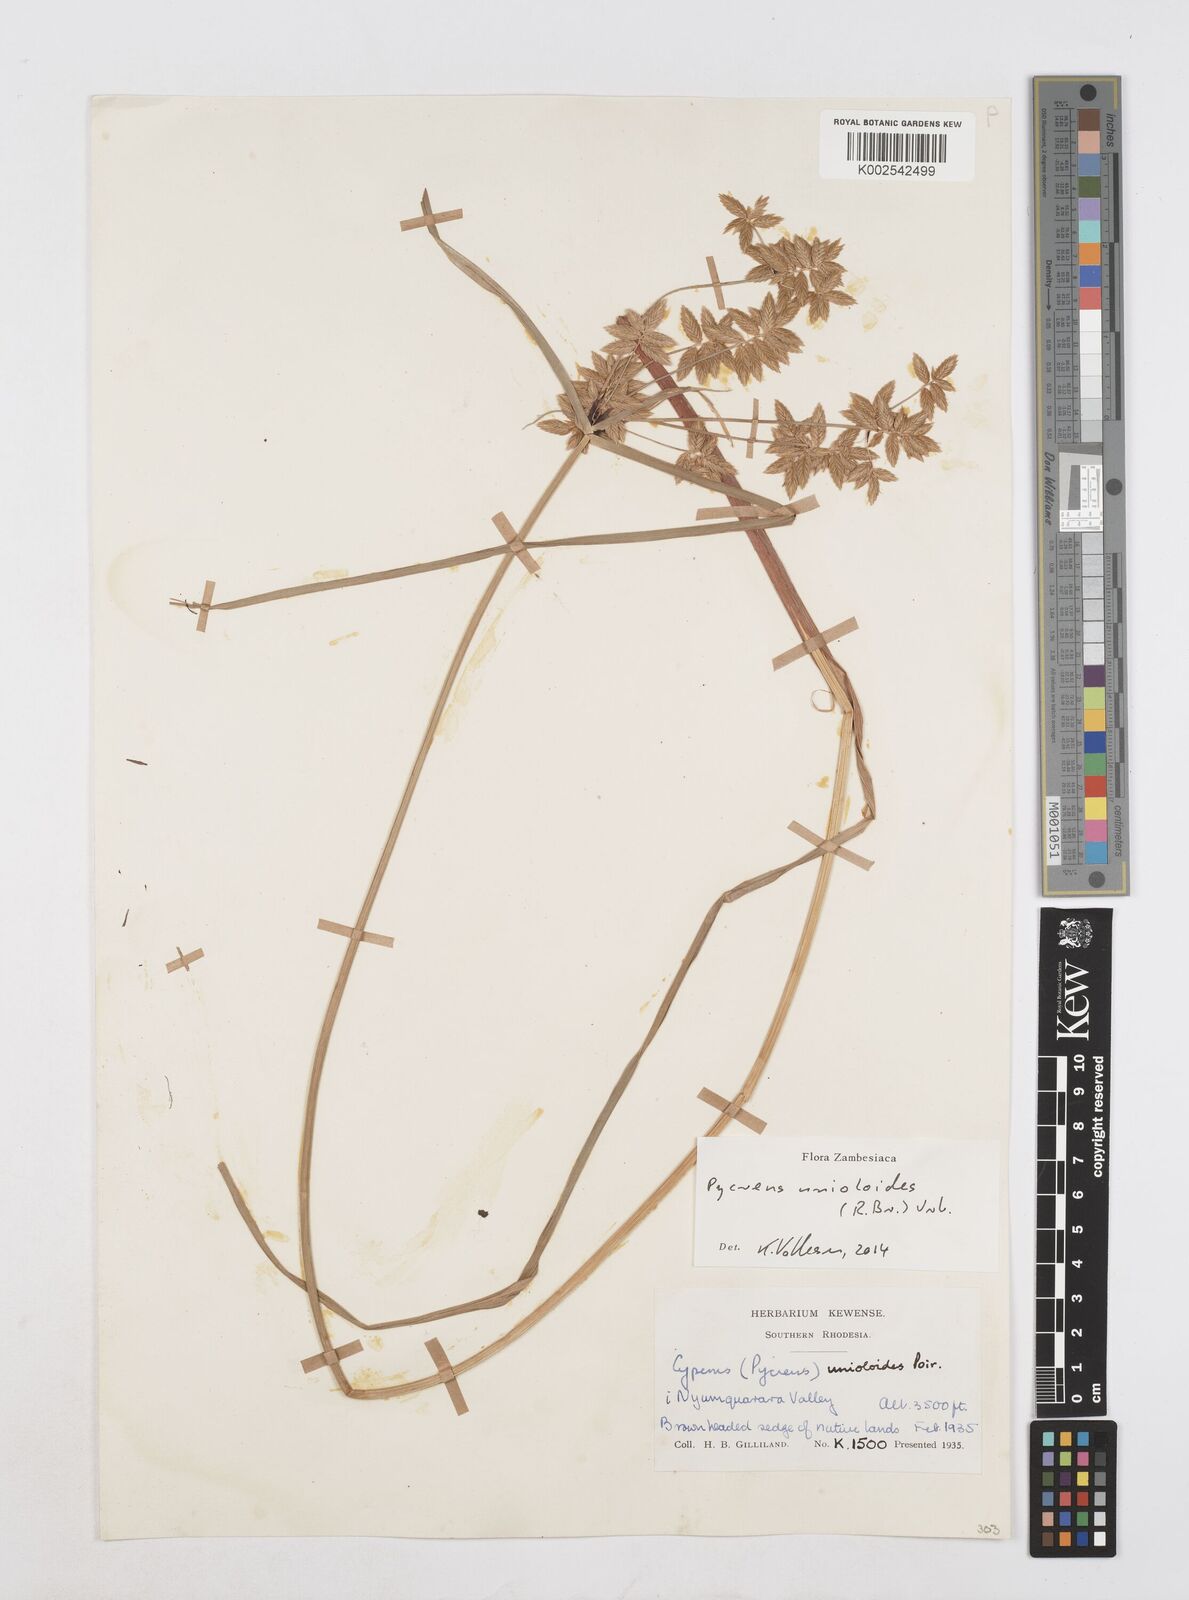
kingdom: Plantae
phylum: Tracheophyta
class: Liliopsida
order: Poales
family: Cyperaceae
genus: Cyperus
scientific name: Cyperus unioloides
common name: Uniola flatsedge
